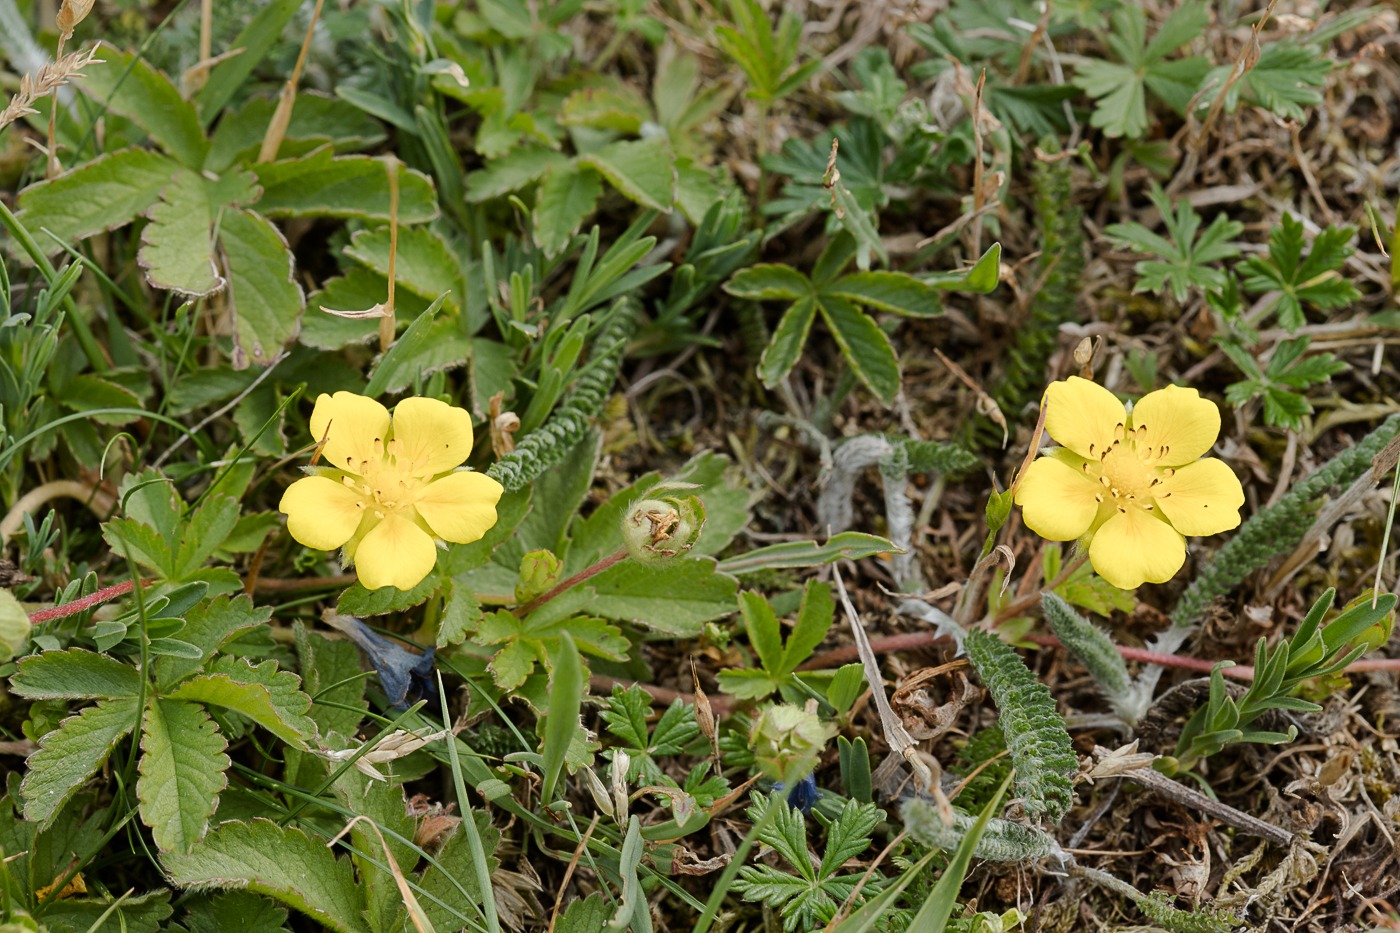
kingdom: Plantae
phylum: Tracheophyta
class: Magnoliopsida
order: Rosales
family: Rosaceae
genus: Potentilla
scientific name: Potentilla reptans
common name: Krybende potentil
